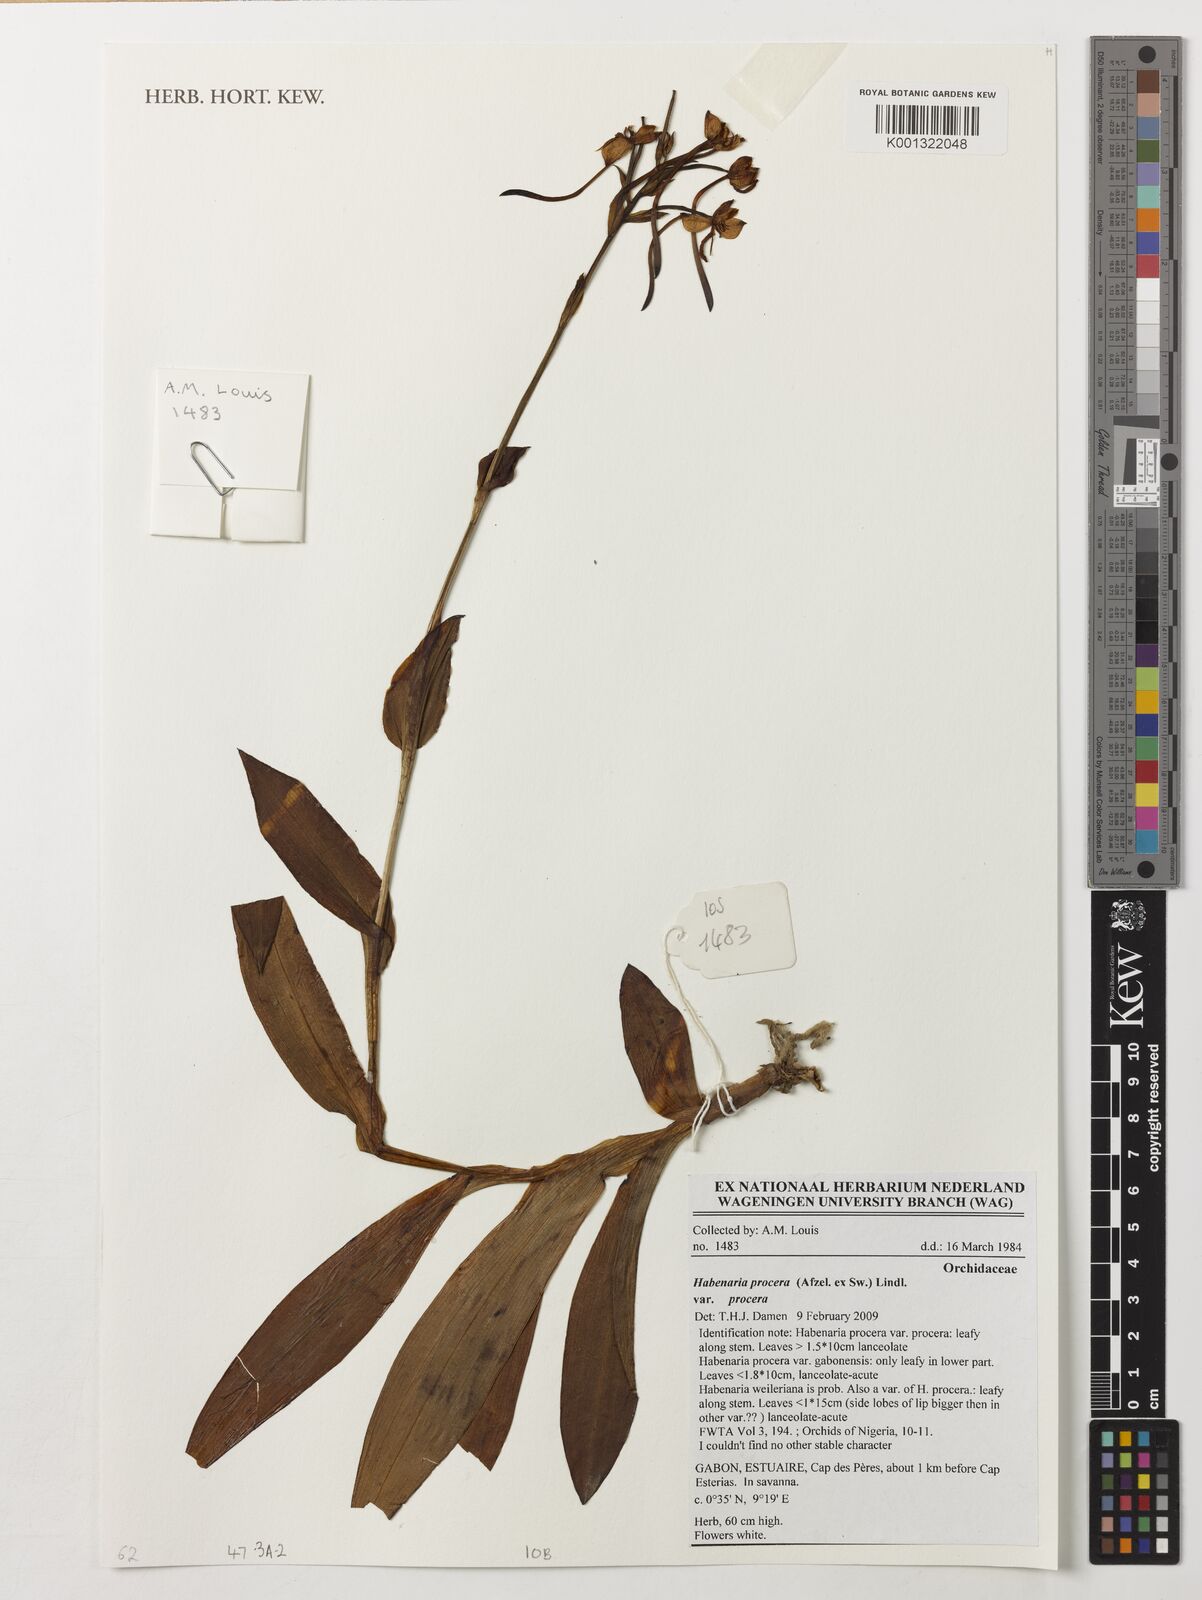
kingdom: Plantae
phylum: Tracheophyta
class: Liliopsida
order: Asparagales
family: Orchidaceae
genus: Habenaria
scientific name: Habenaria procera
